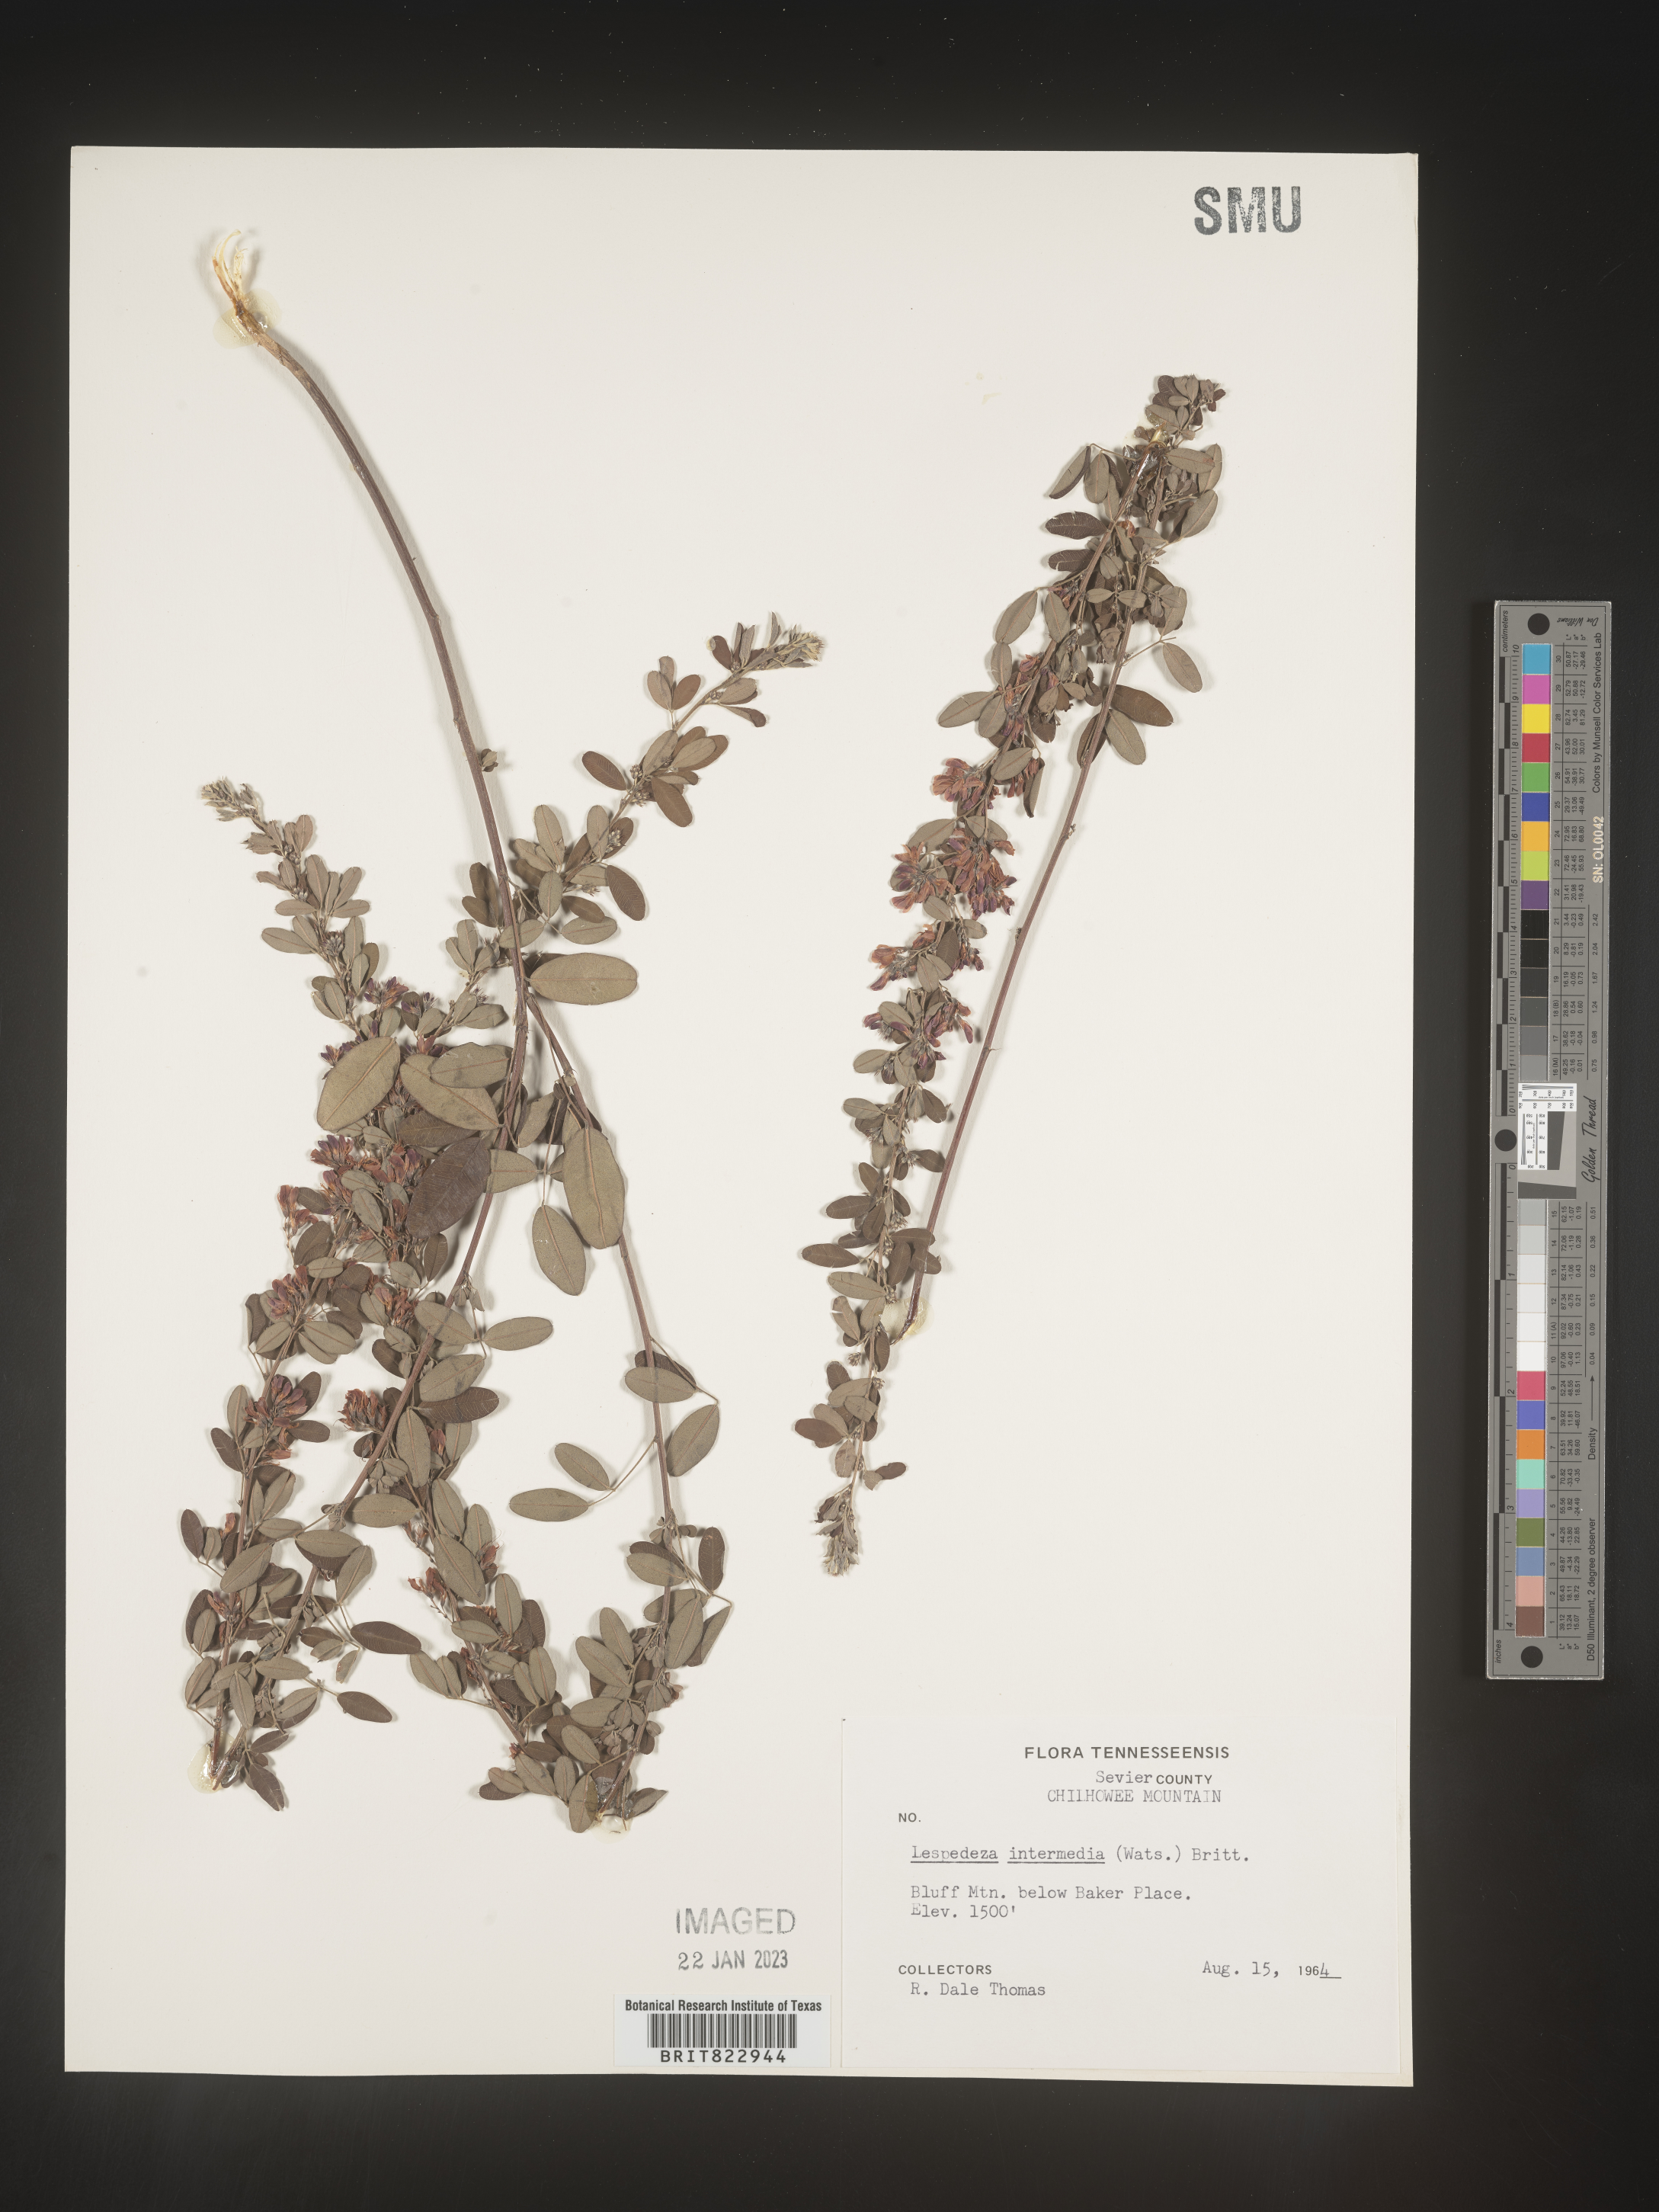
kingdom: Plantae
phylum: Tracheophyta
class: Magnoliopsida
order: Fabales
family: Fabaceae
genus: Lespedeza
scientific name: Lespedeza
